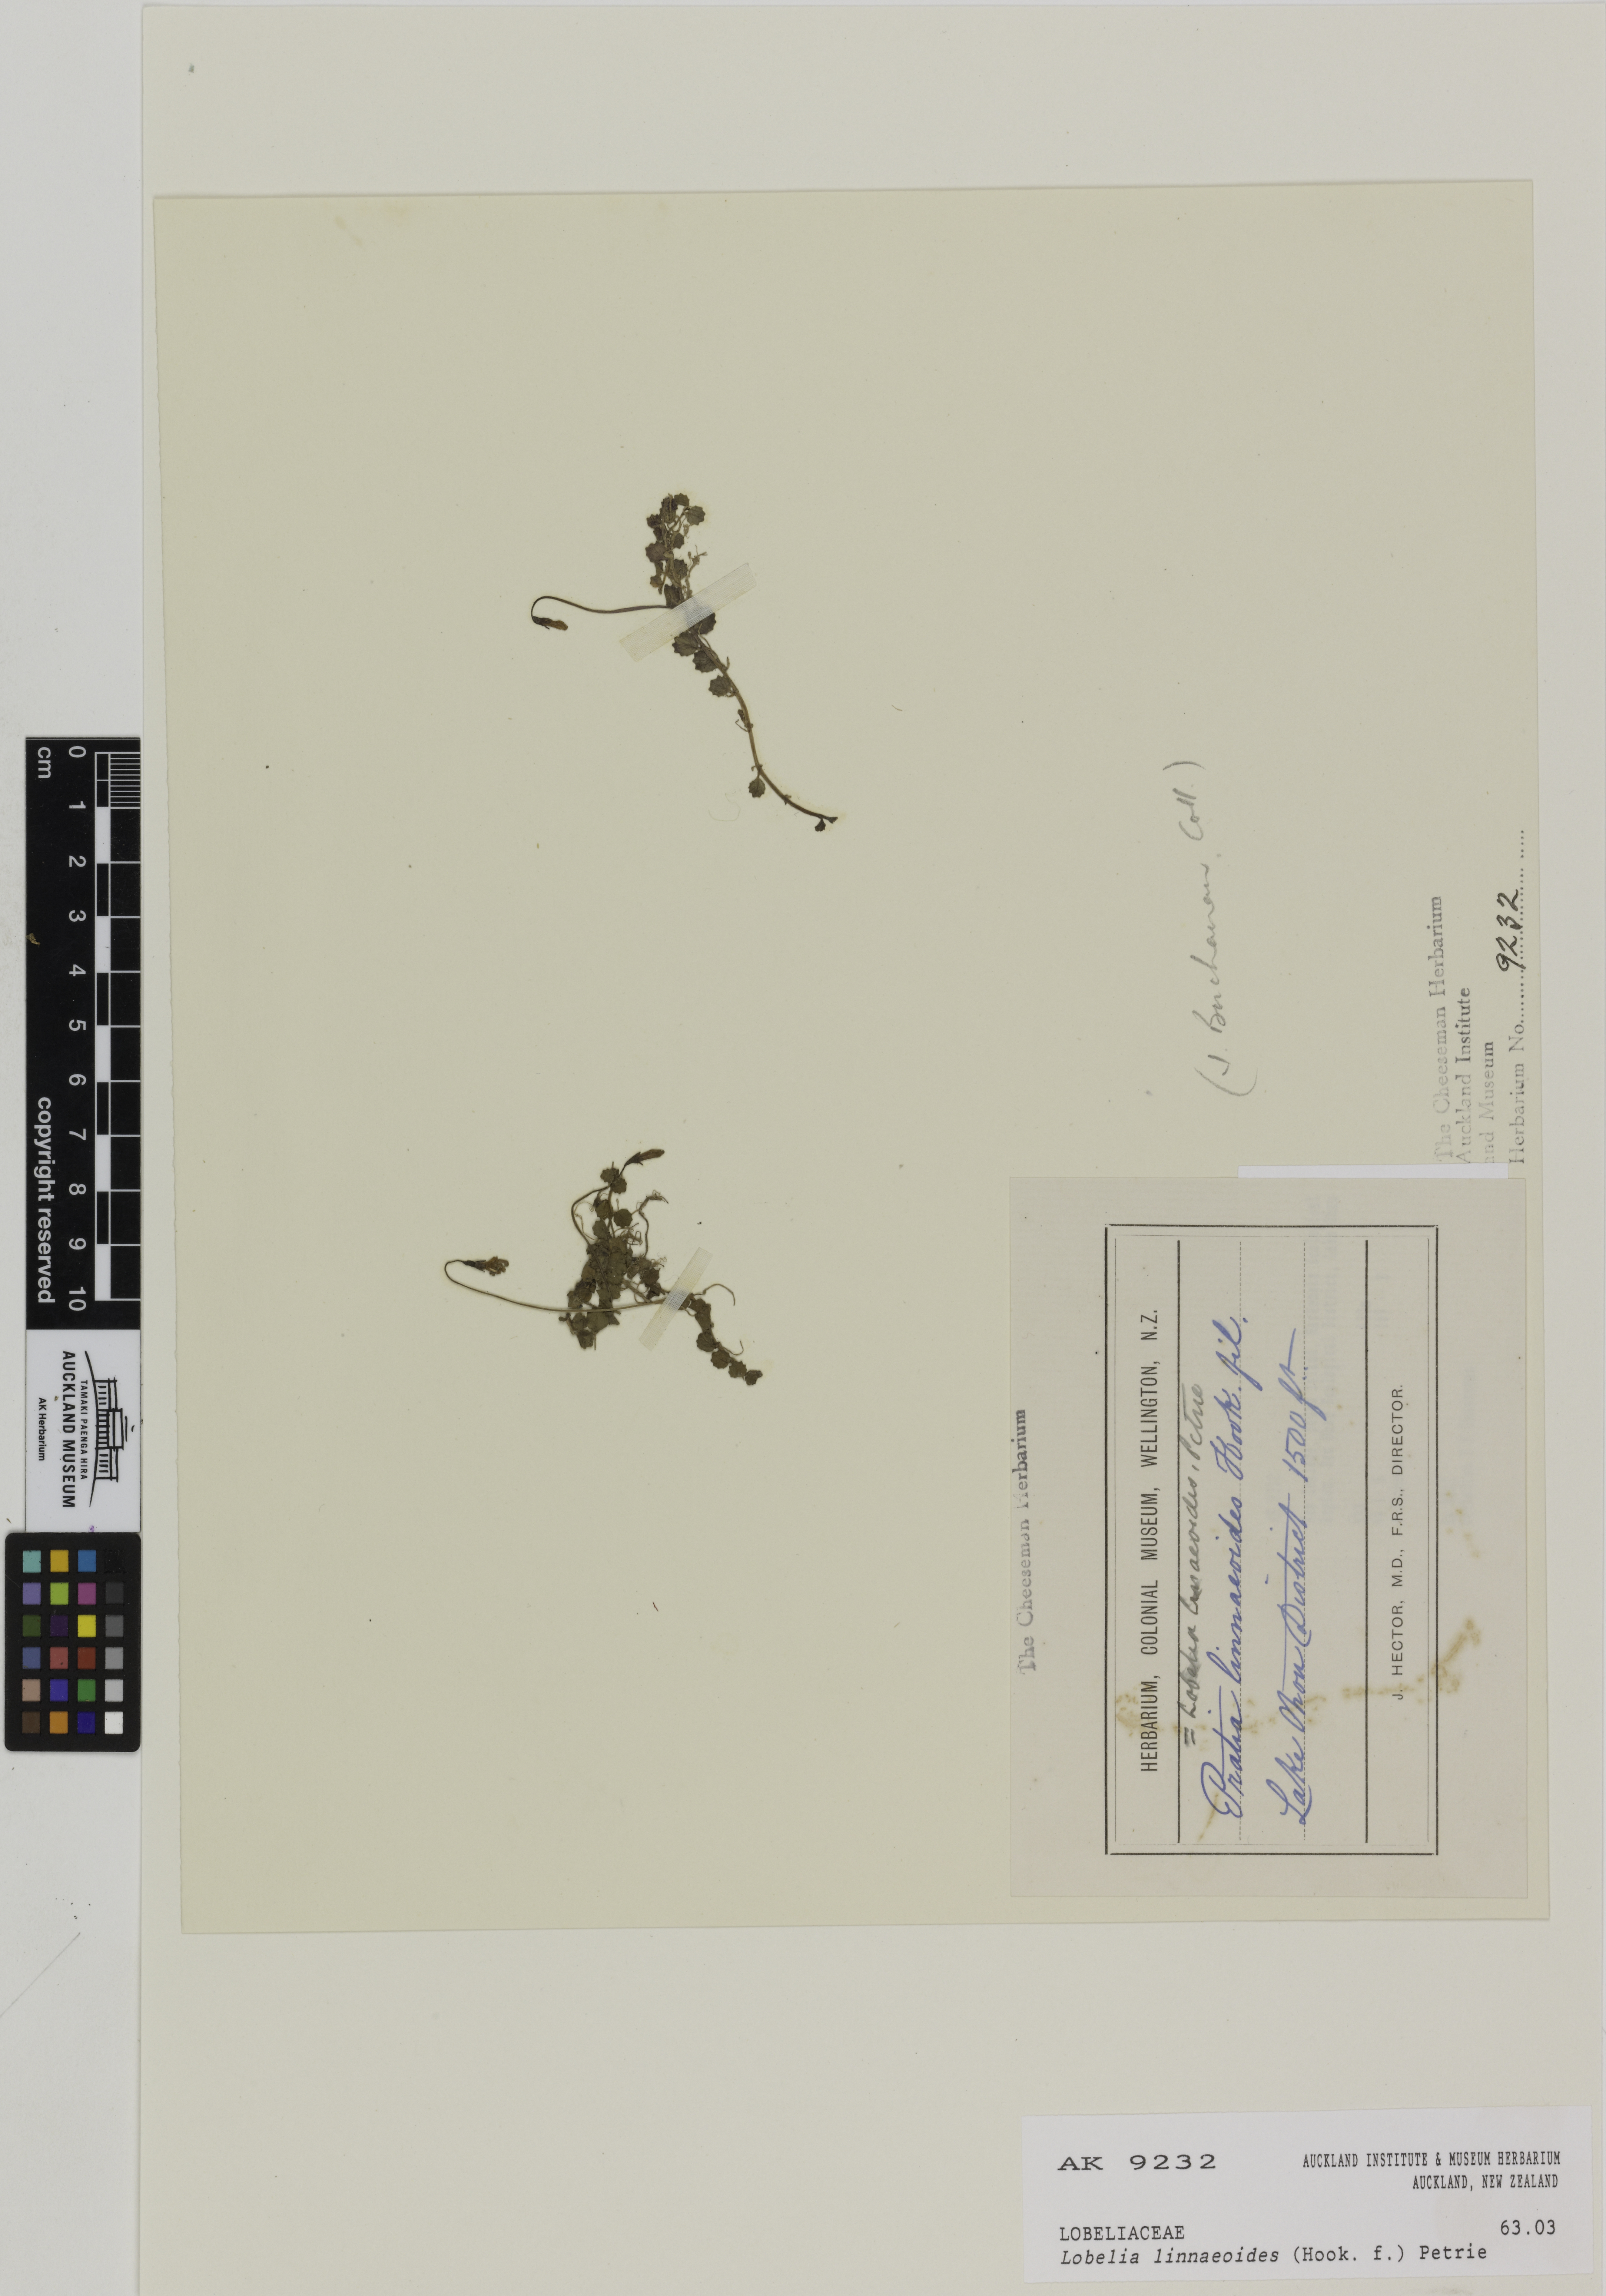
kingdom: Plantae
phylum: Tracheophyta
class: Magnoliopsida
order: Asterales
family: Campanulaceae
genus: Lobelia
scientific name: Lobelia angulata
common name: Lawn lobelia
